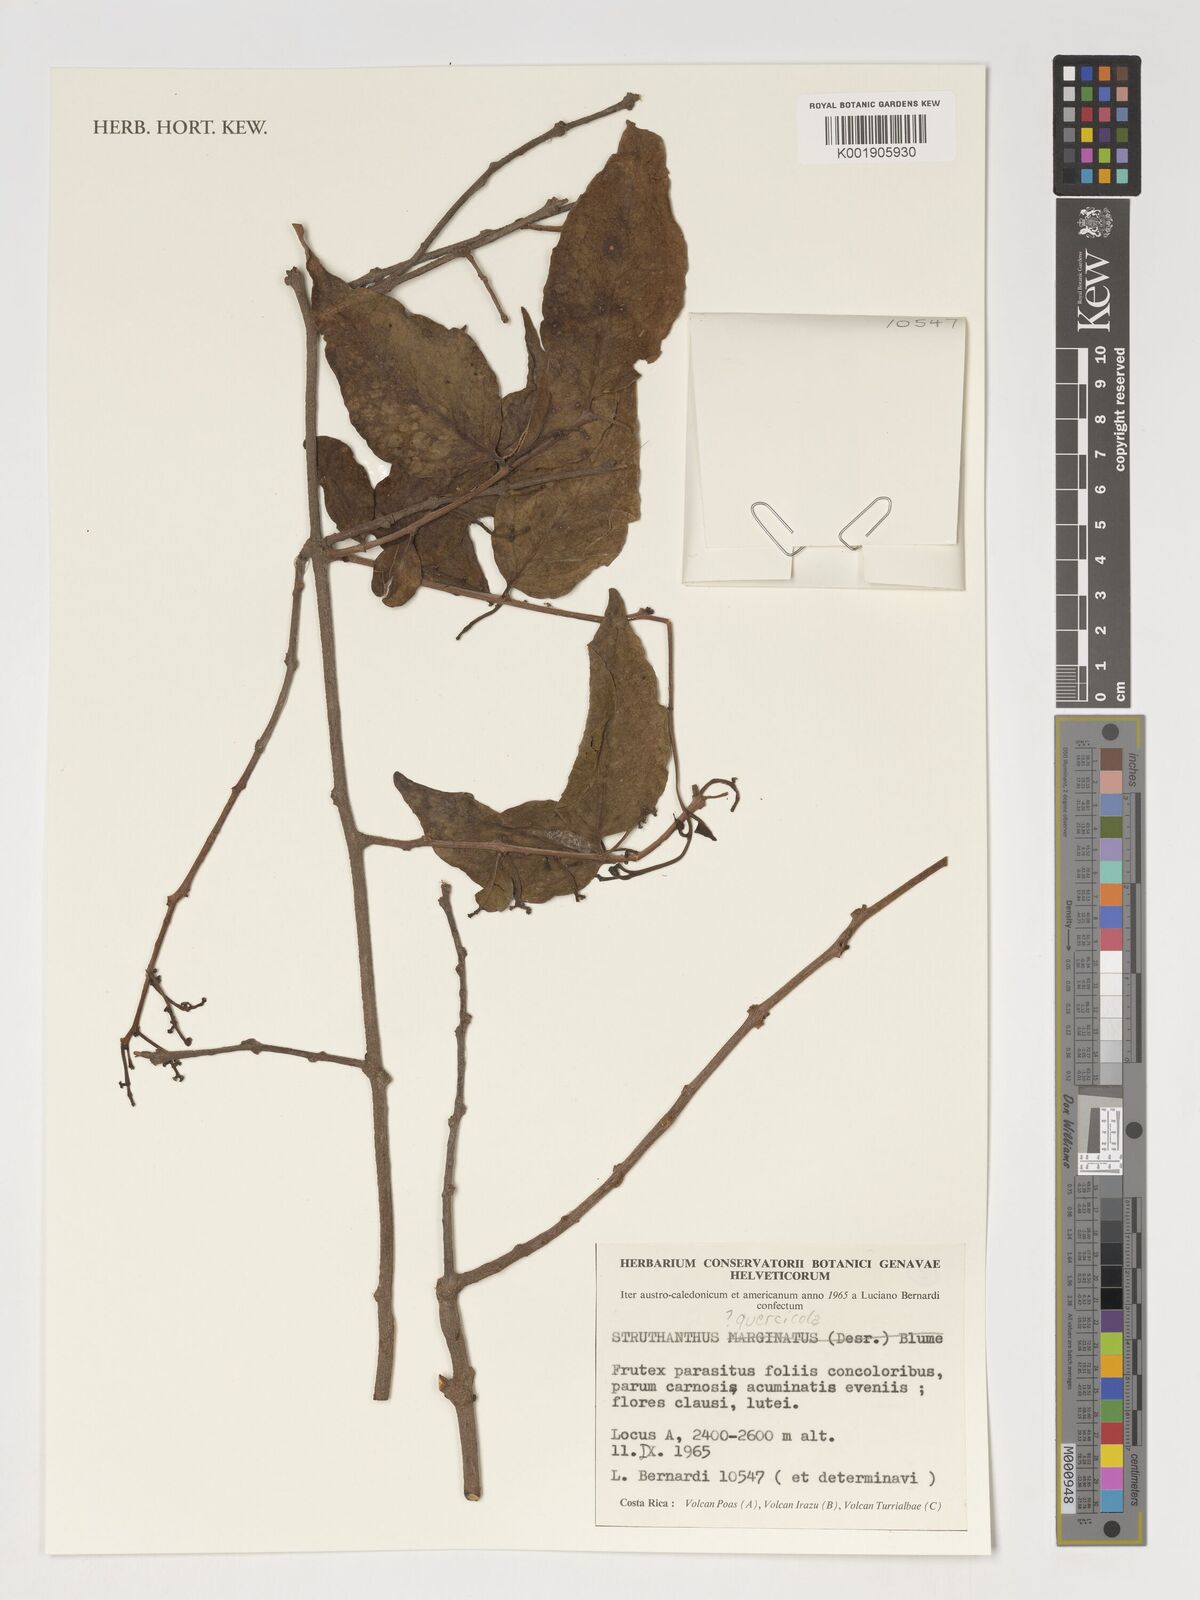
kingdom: Plantae
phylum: Tracheophyta
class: Magnoliopsida
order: Santalales
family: Loranthaceae
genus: Struthanthus
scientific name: Struthanthus quercicola
